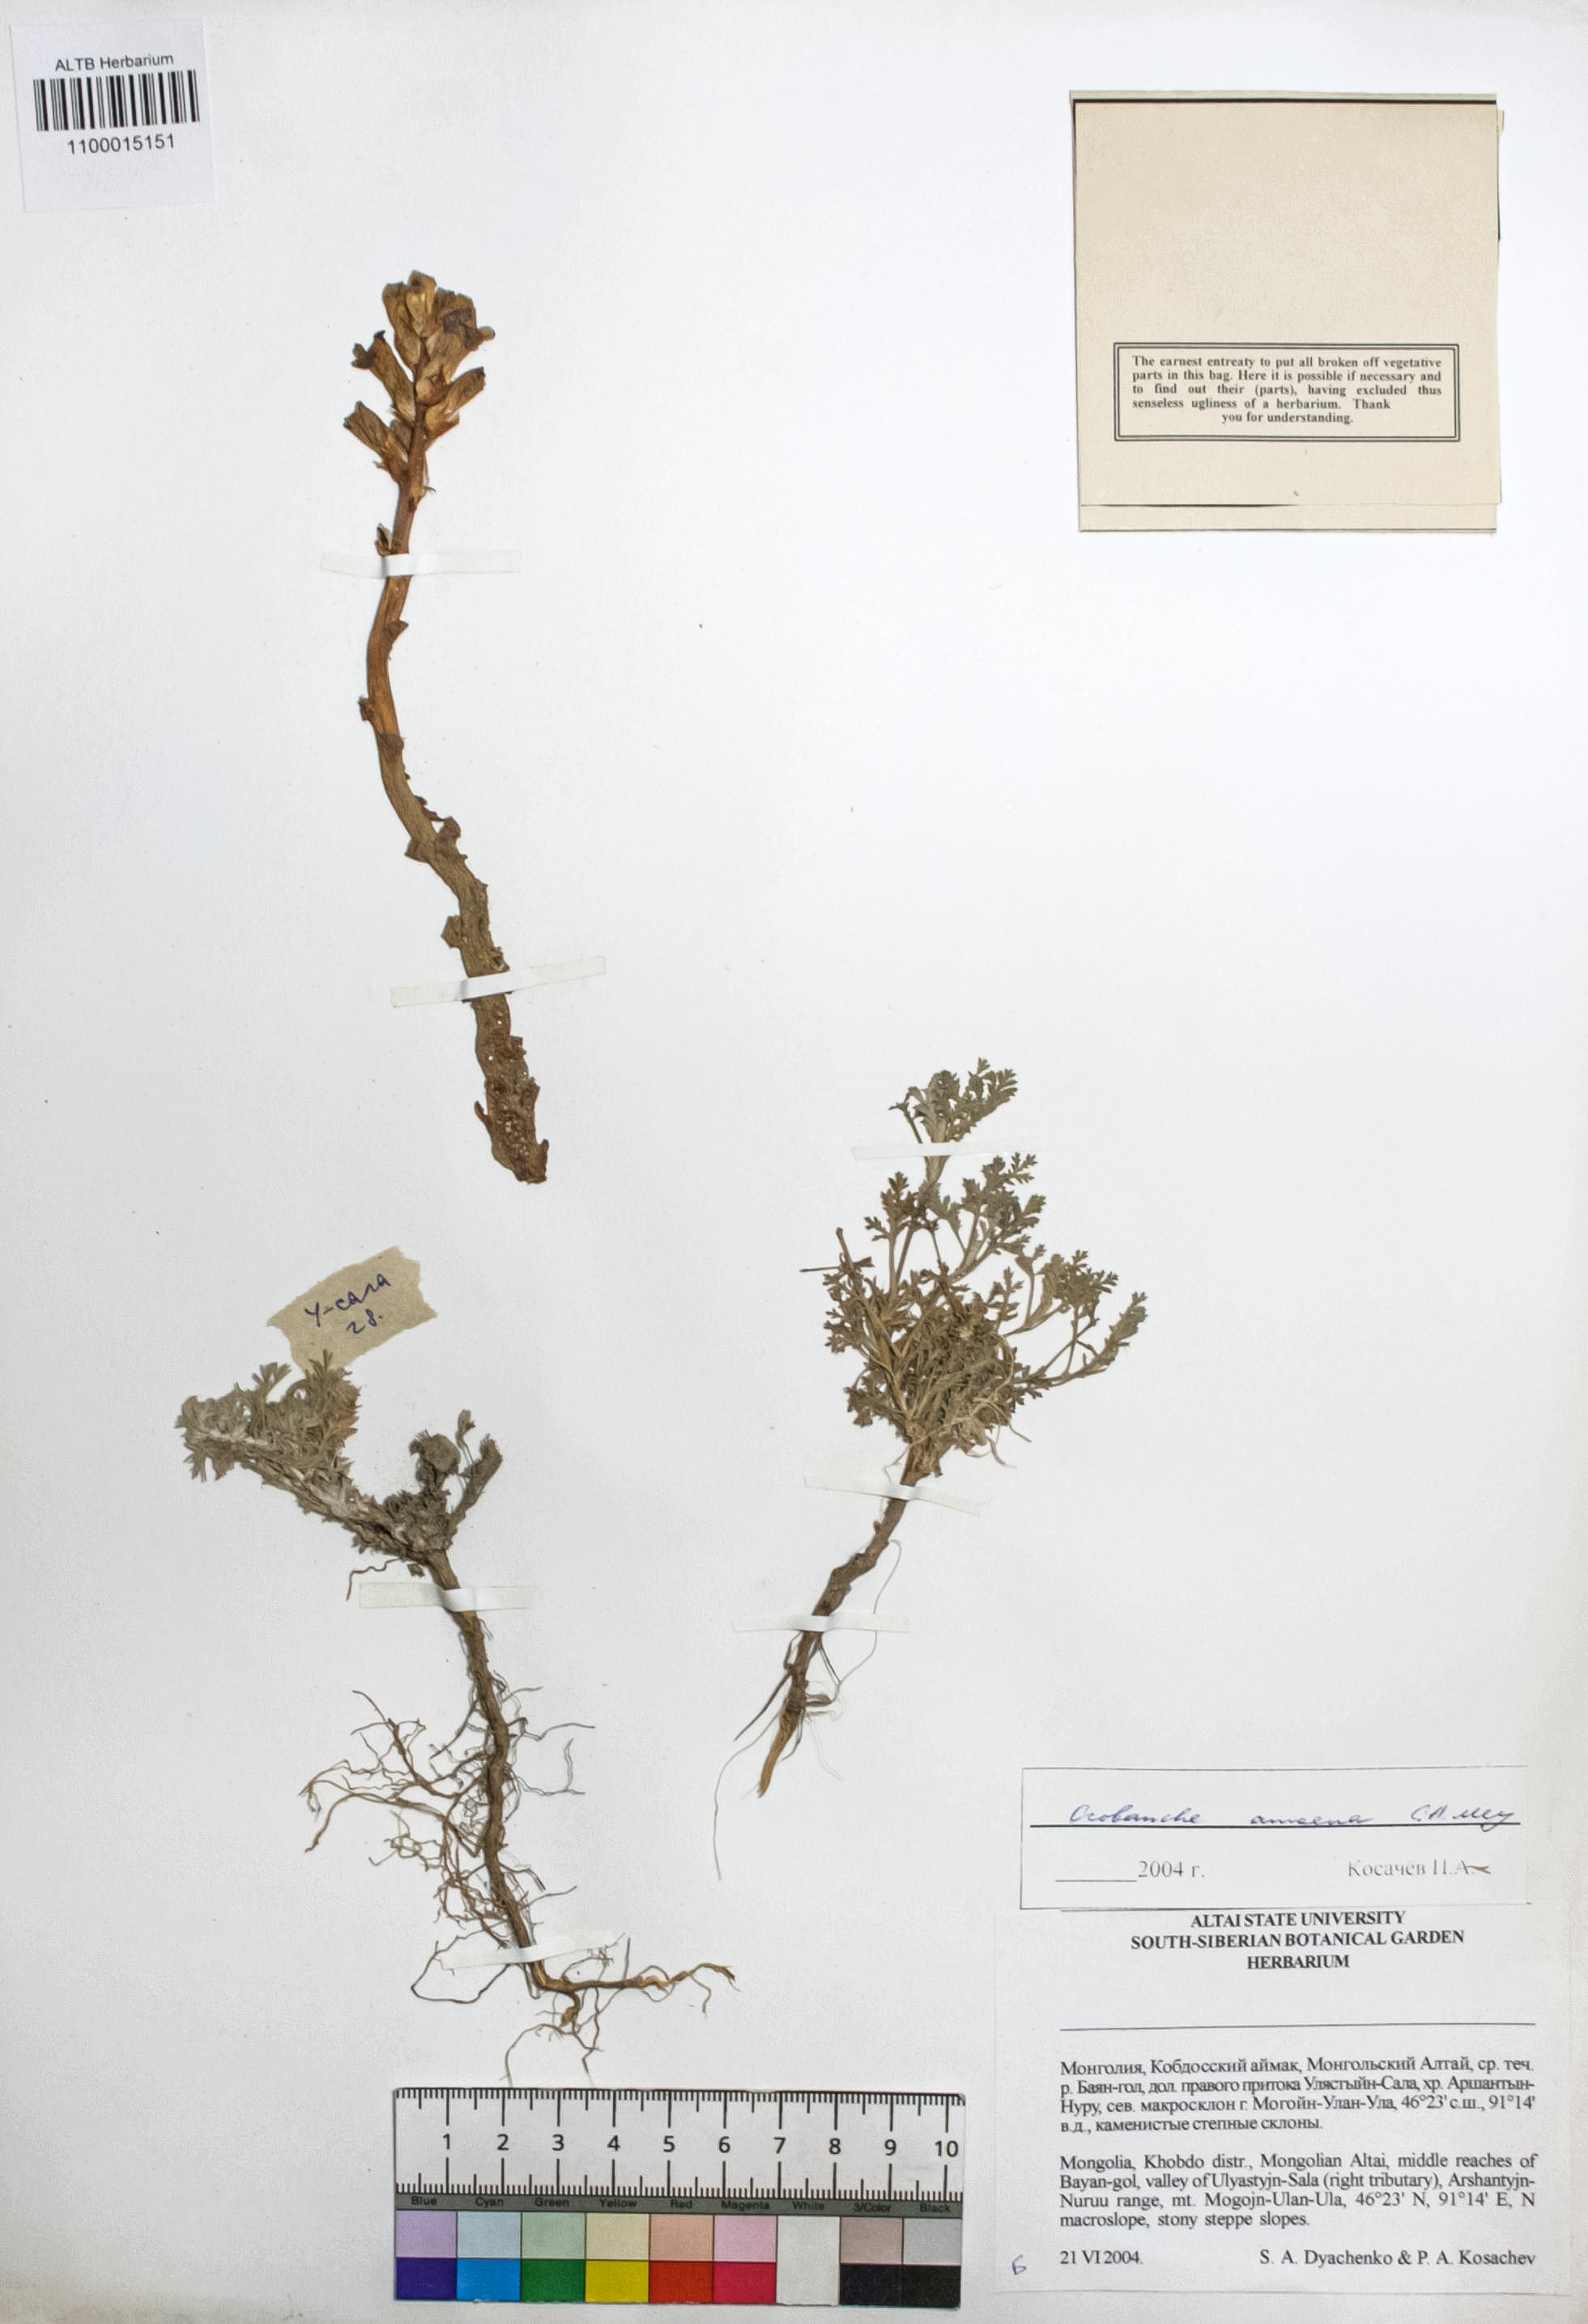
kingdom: Plantae
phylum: Tracheophyta
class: Magnoliopsida
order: Lamiales
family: Orobanchaceae
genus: Orobanche
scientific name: Orobanche amoena
